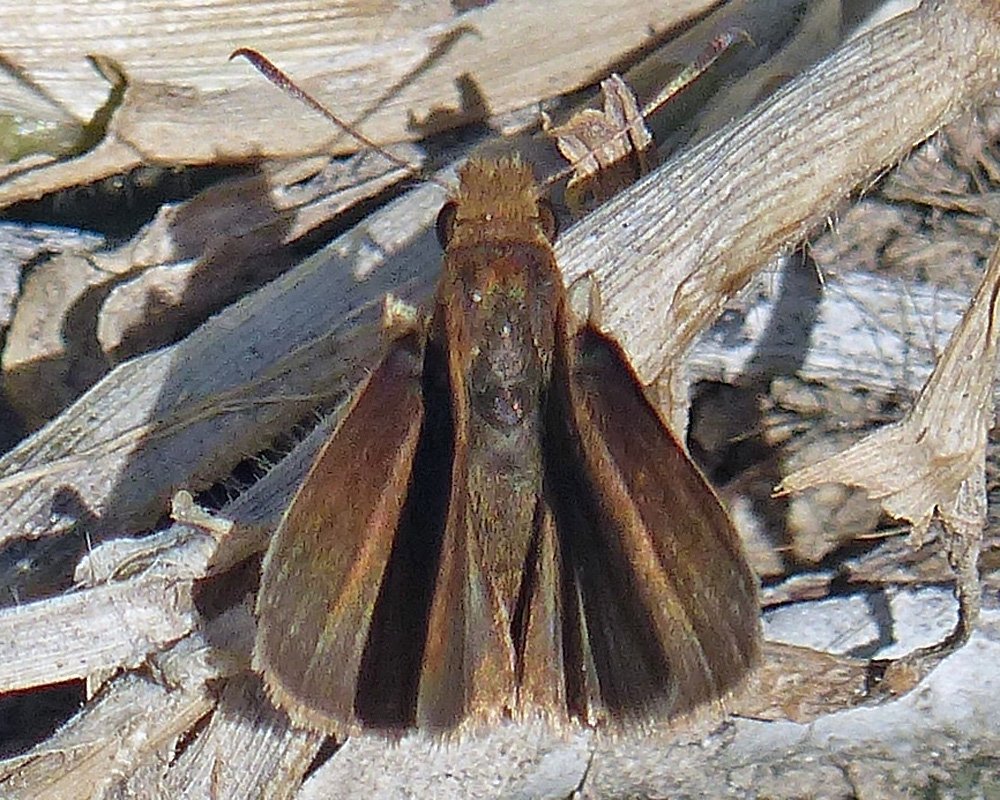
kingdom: Animalia
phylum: Arthropoda
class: Insecta
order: Lepidoptera
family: Hesperiidae
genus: Vidius
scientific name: Vidius perigenes
